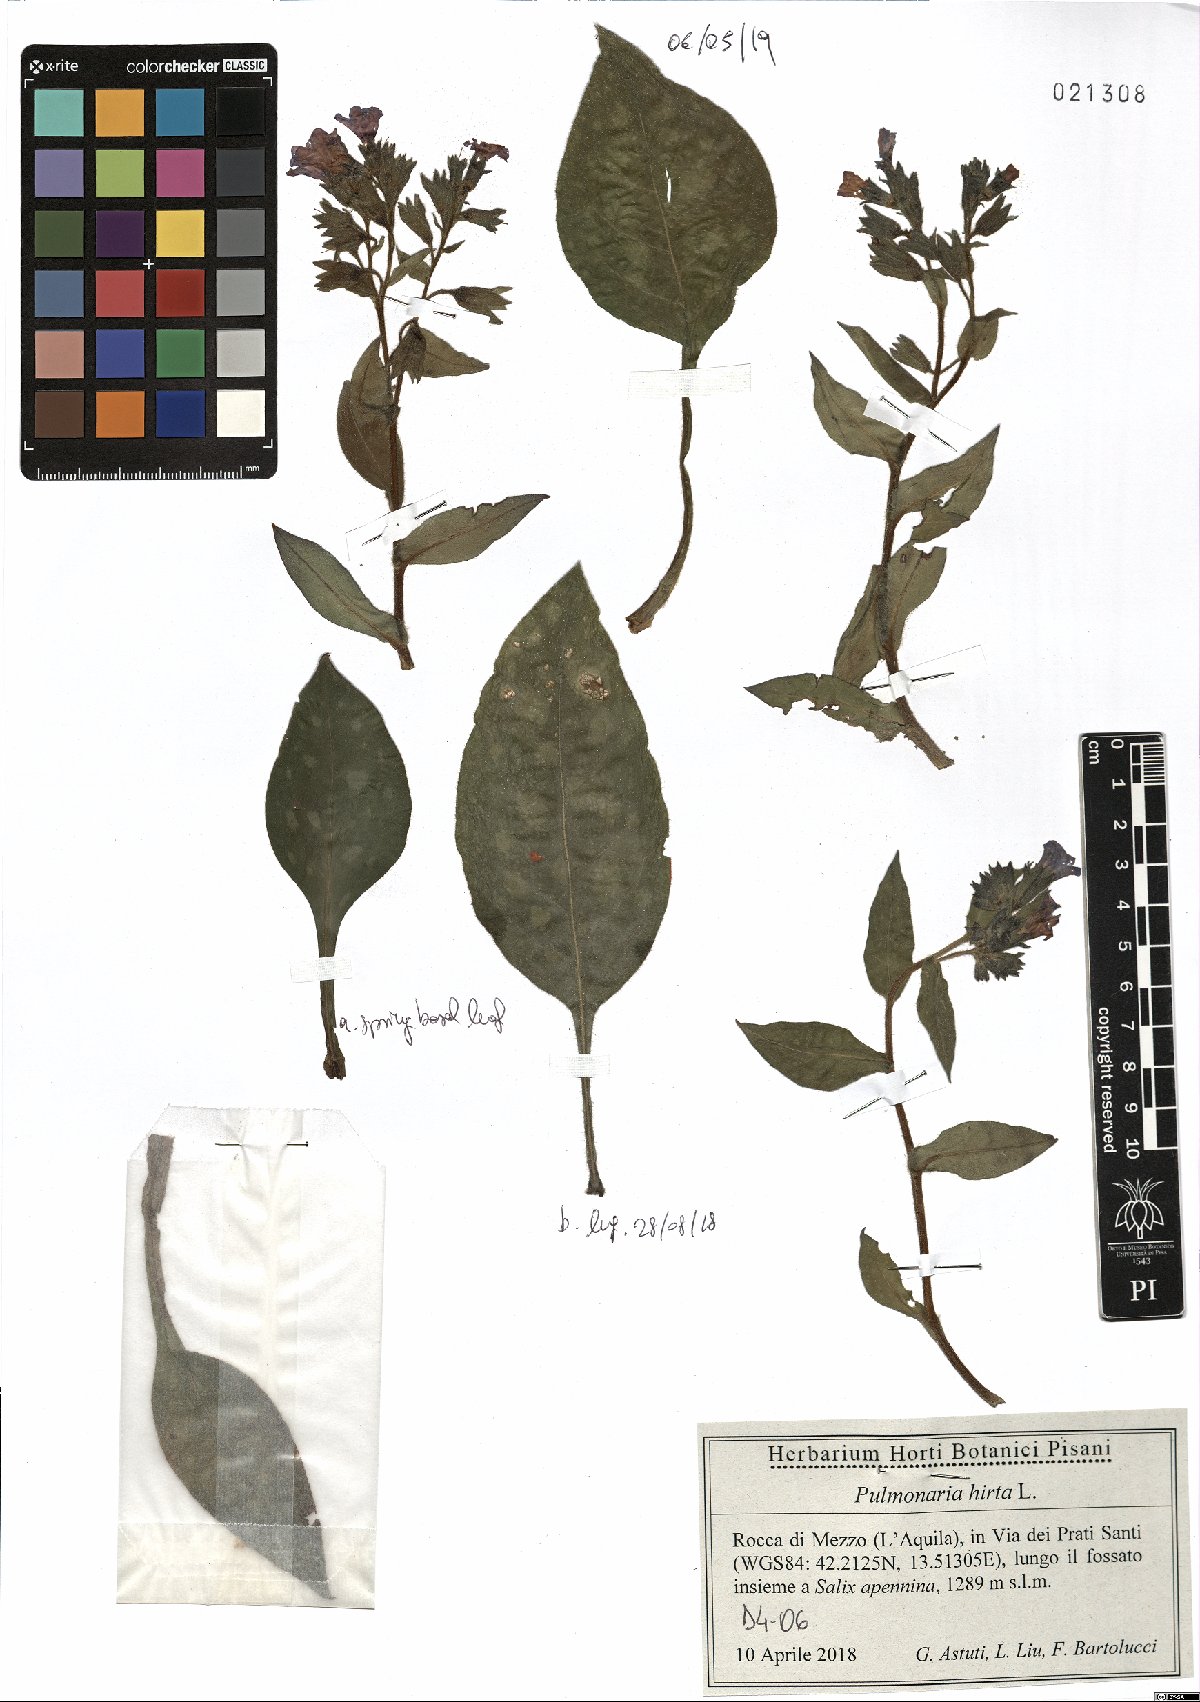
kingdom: Plantae
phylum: Tracheophyta
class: Magnoliopsida
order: Boraginales
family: Boraginaceae
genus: Pulmonaria
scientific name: Pulmonaria hirta
